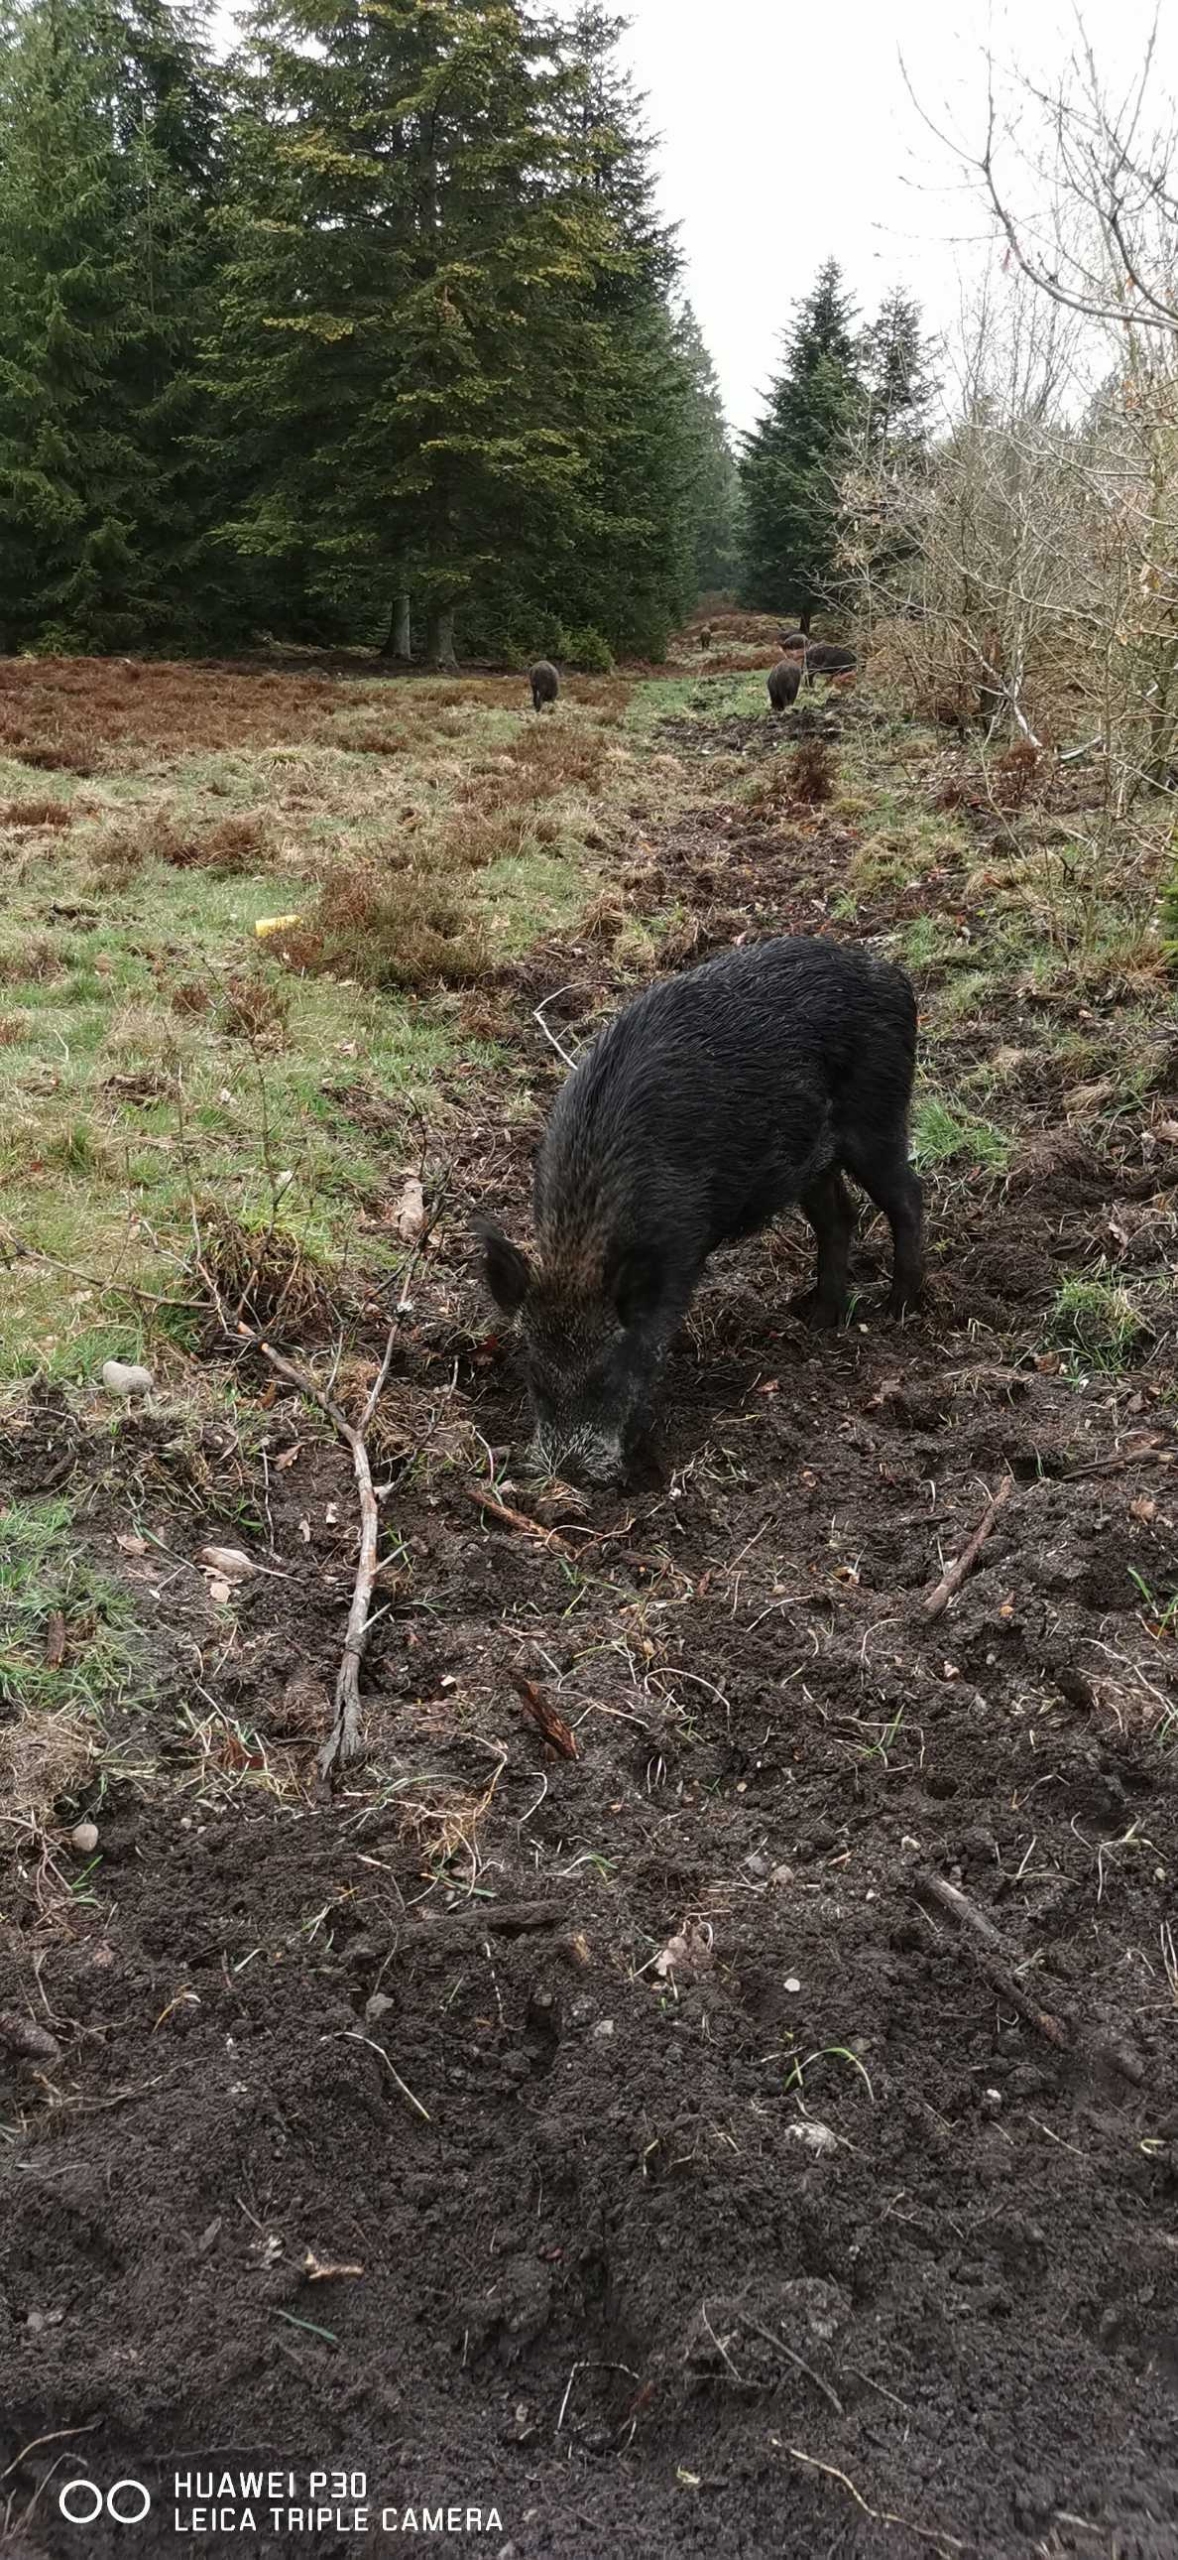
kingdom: Animalia
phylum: Chordata
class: Mammalia
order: Artiodactyla
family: Suidae
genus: Sus
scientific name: Sus scrofa
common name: Vildsvin
